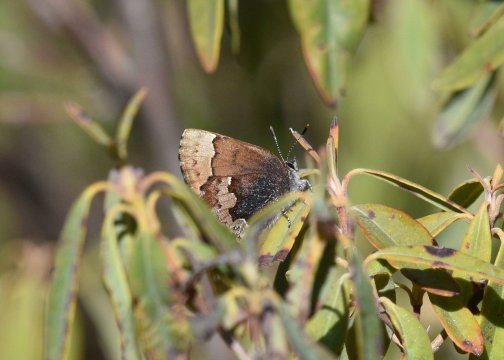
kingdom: Animalia
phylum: Arthropoda
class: Insecta
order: Lepidoptera
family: Lycaenidae
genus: Incisalia
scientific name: Incisalia henrici
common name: Henry's Elfin
